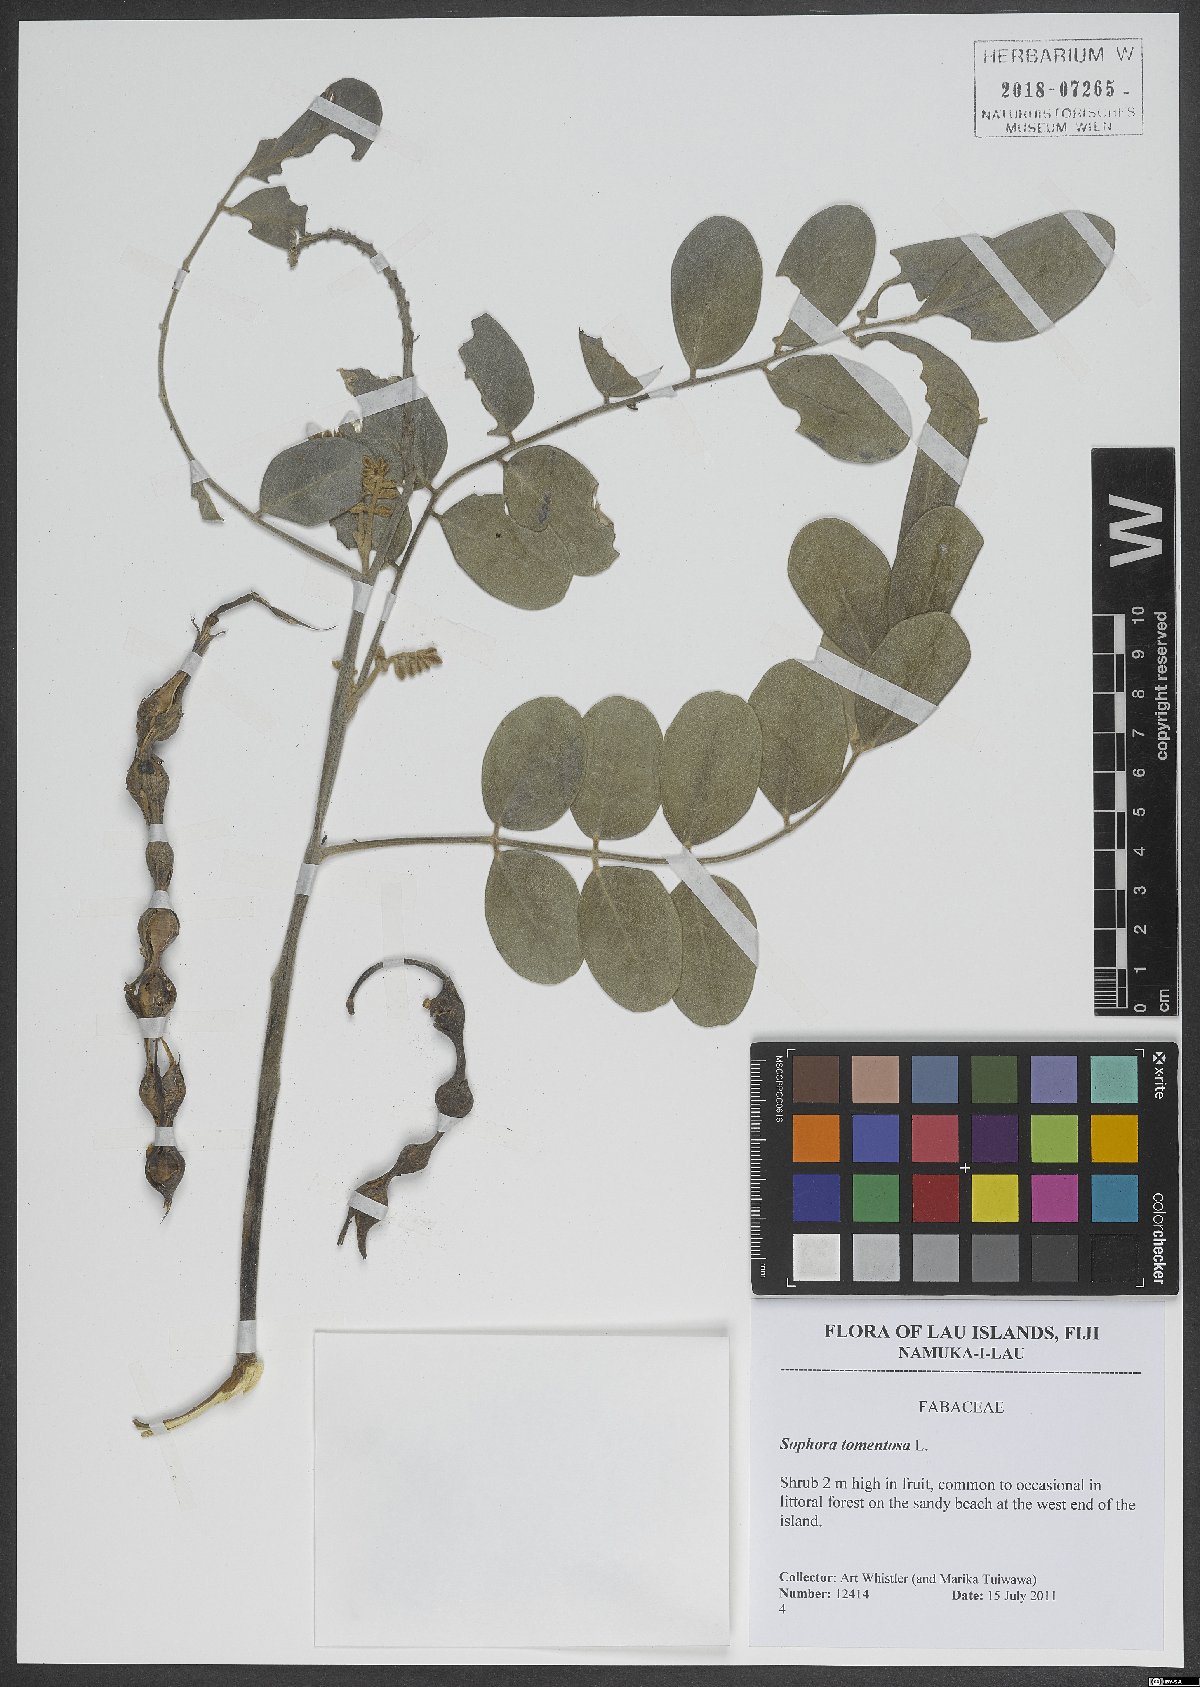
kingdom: Plantae
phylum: Tracheophyta
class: Magnoliopsida
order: Fabales
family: Fabaceae
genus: Sophora
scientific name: Sophora tomentosa
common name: Yellow necklacepod
